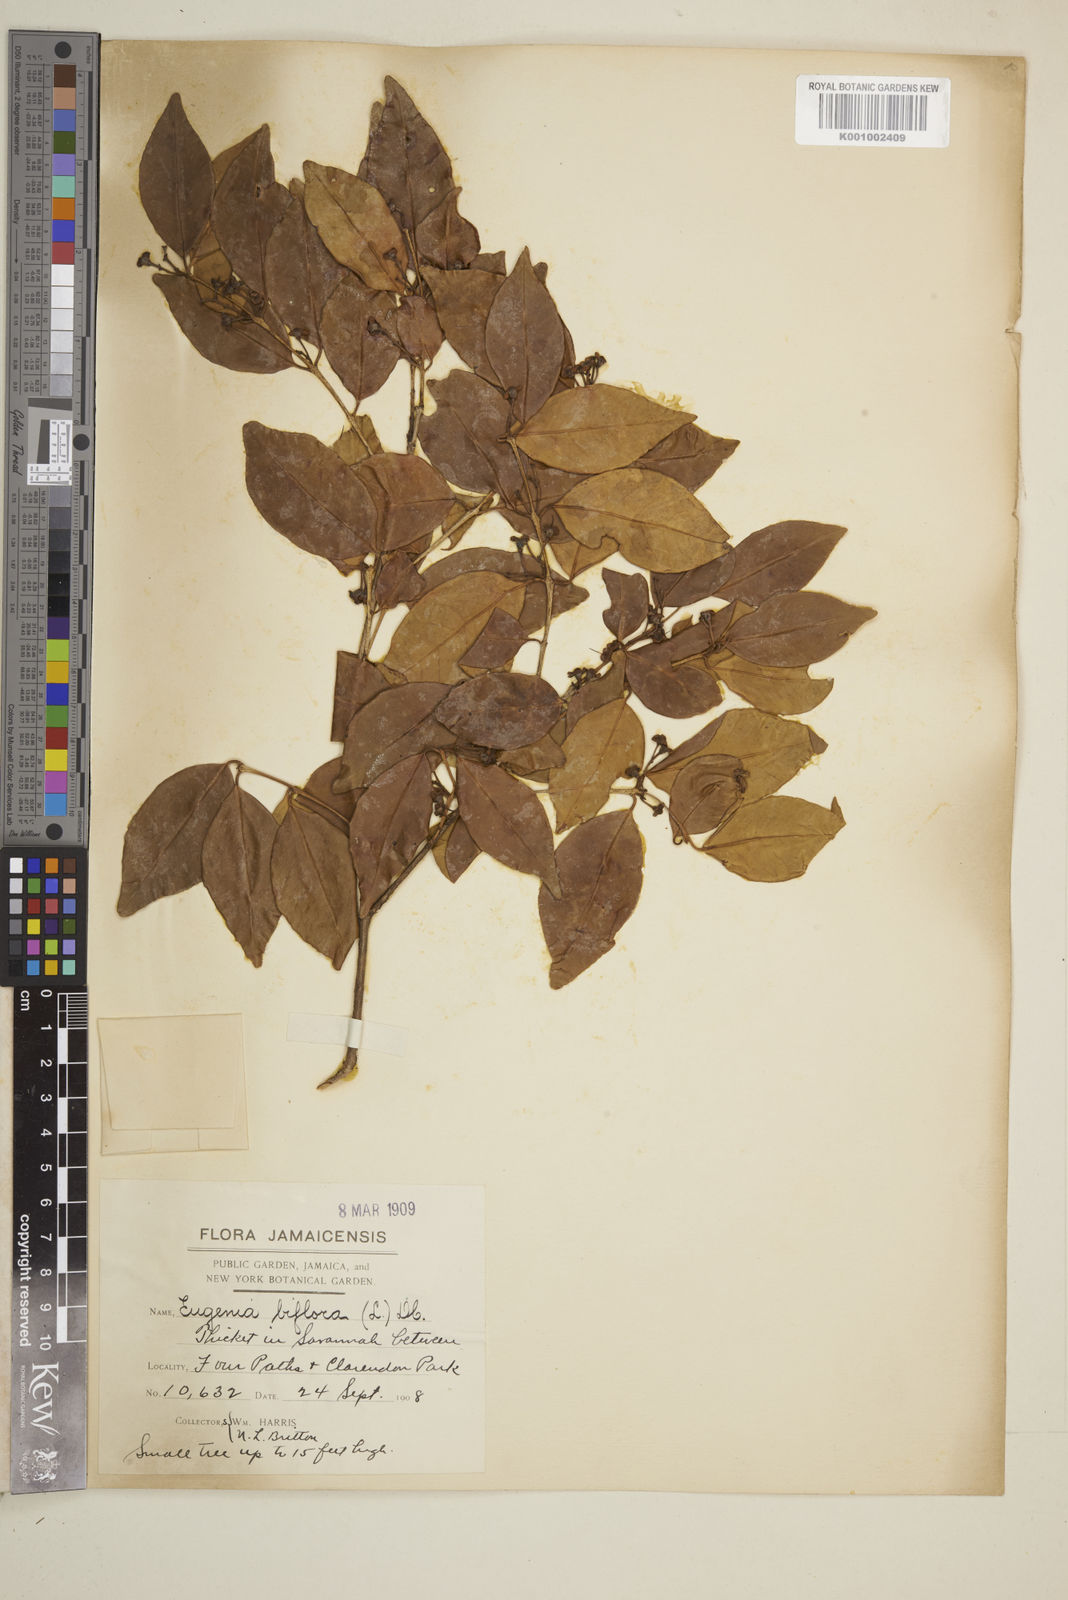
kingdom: Plantae
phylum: Tracheophyta
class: Magnoliopsida
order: Myrtales
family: Myrtaceae
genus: Eugenia
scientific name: Eugenia biflora
